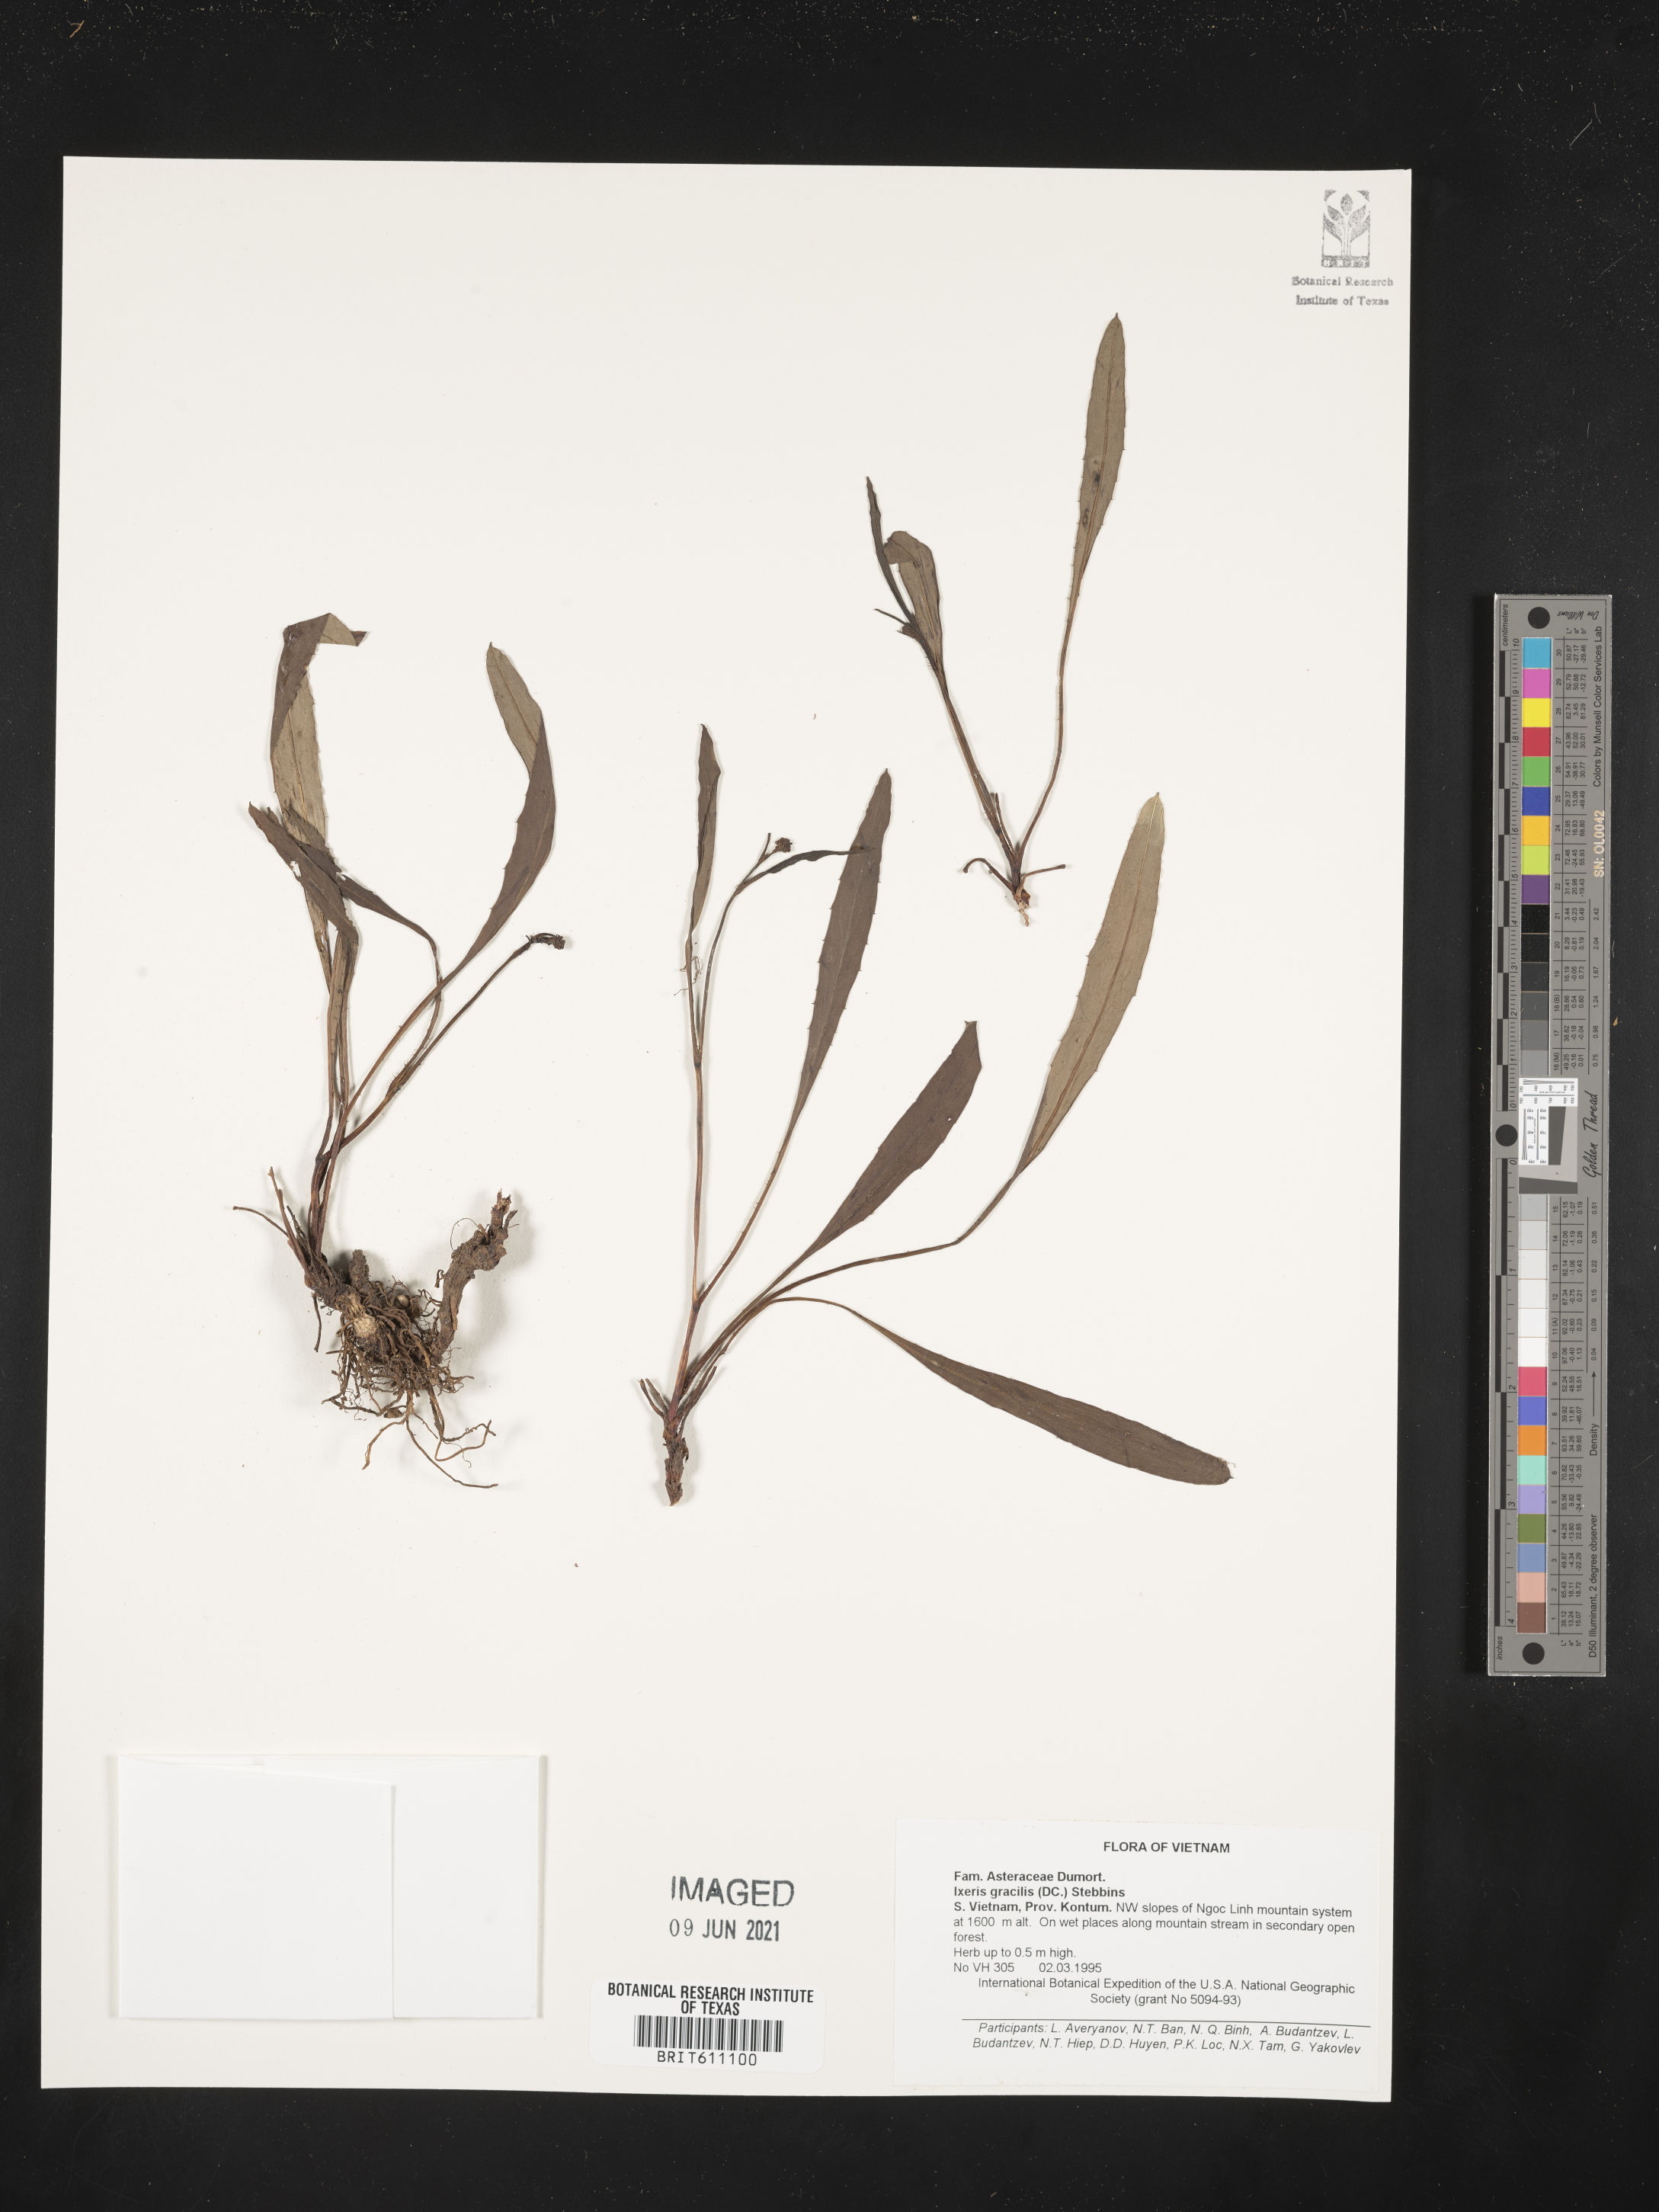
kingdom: Plantae
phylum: Tracheophyta
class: Magnoliopsida
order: Asterales
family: Asteraceae
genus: Ixeridium
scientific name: Ixeridium gracile
